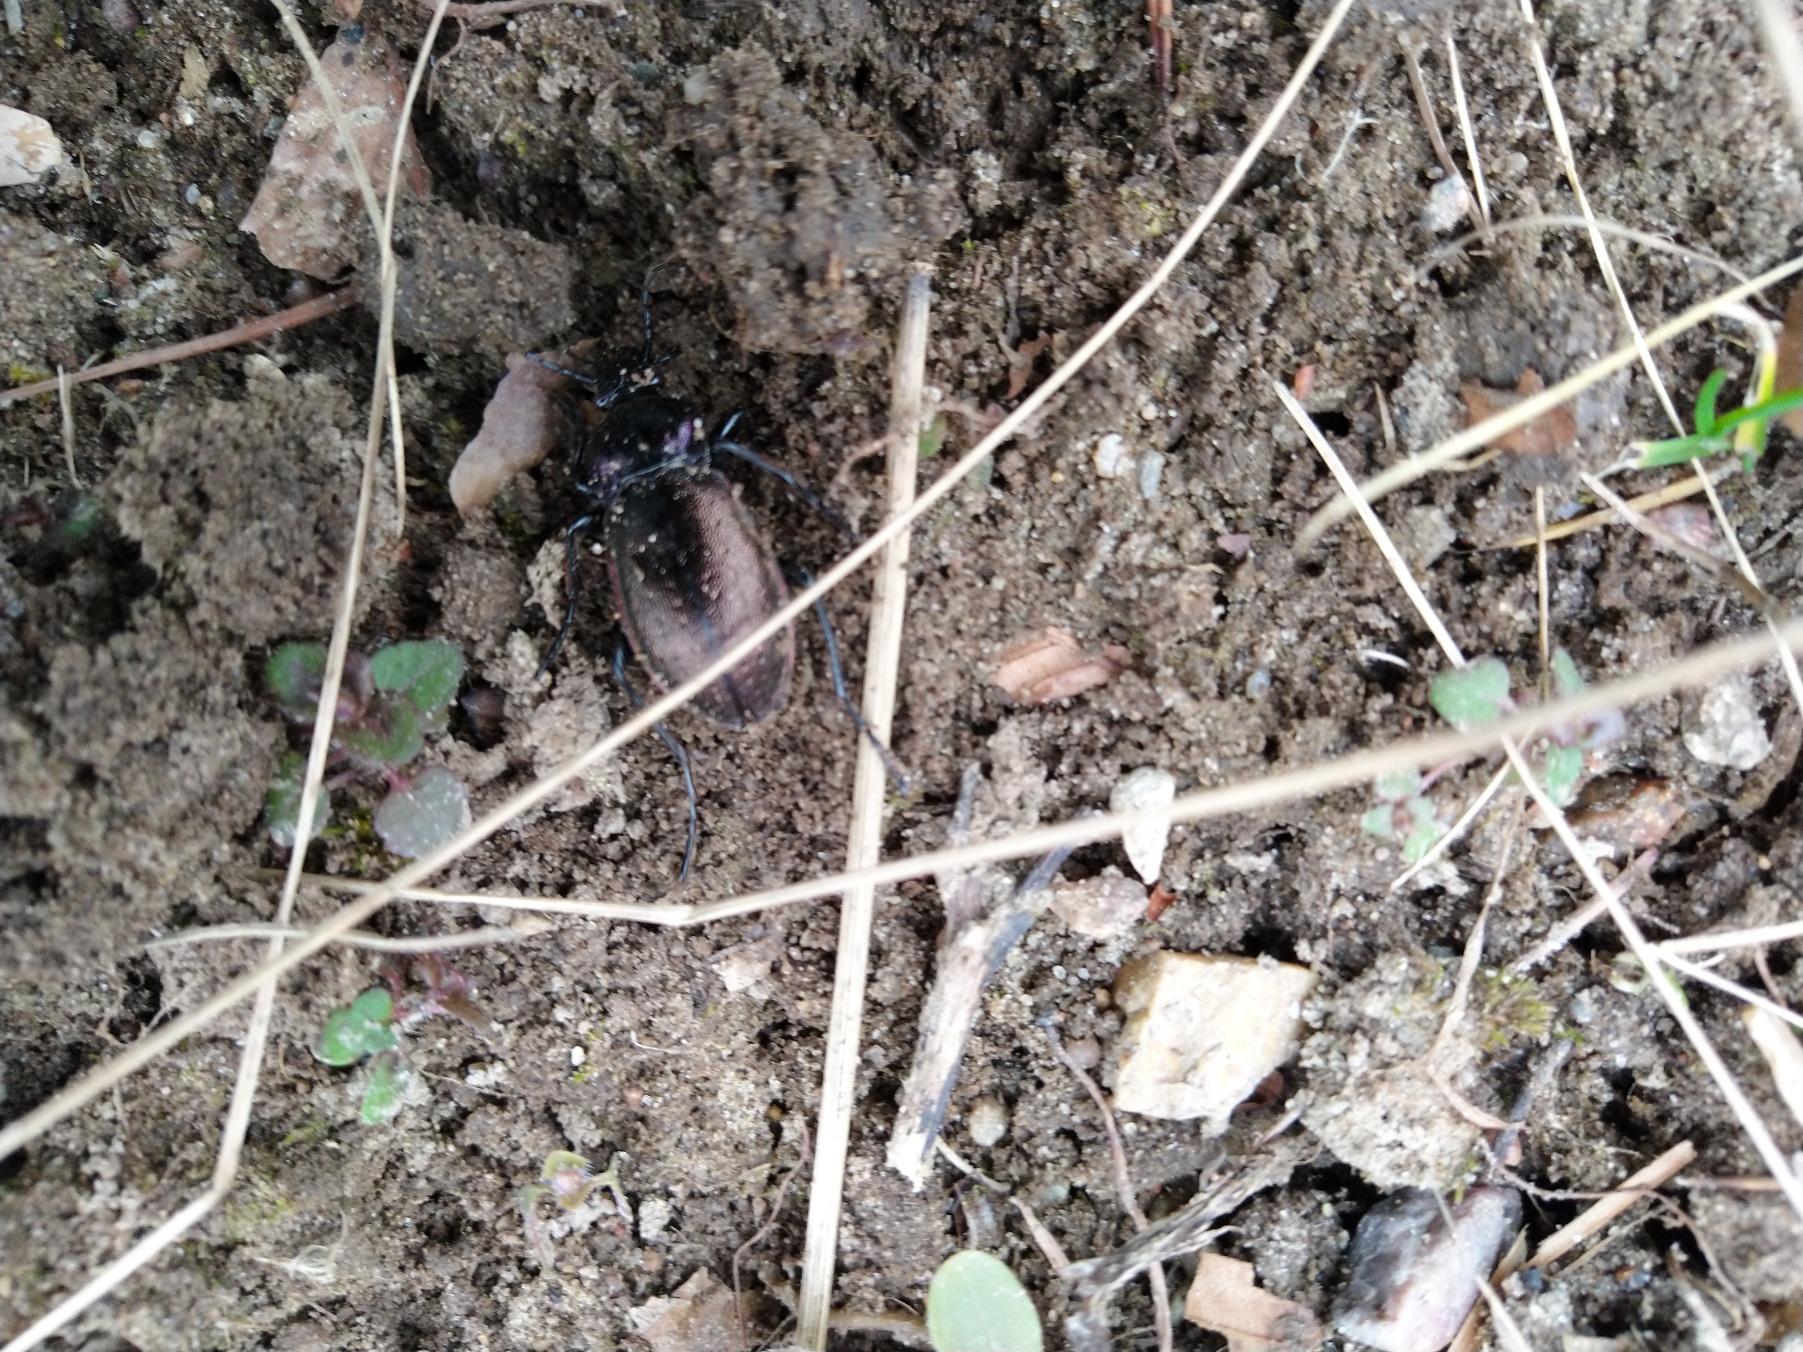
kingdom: Animalia
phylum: Arthropoda
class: Insecta
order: Coleoptera
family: Carabidae
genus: Carabus
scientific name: Carabus nemoralis
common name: Kratløber
